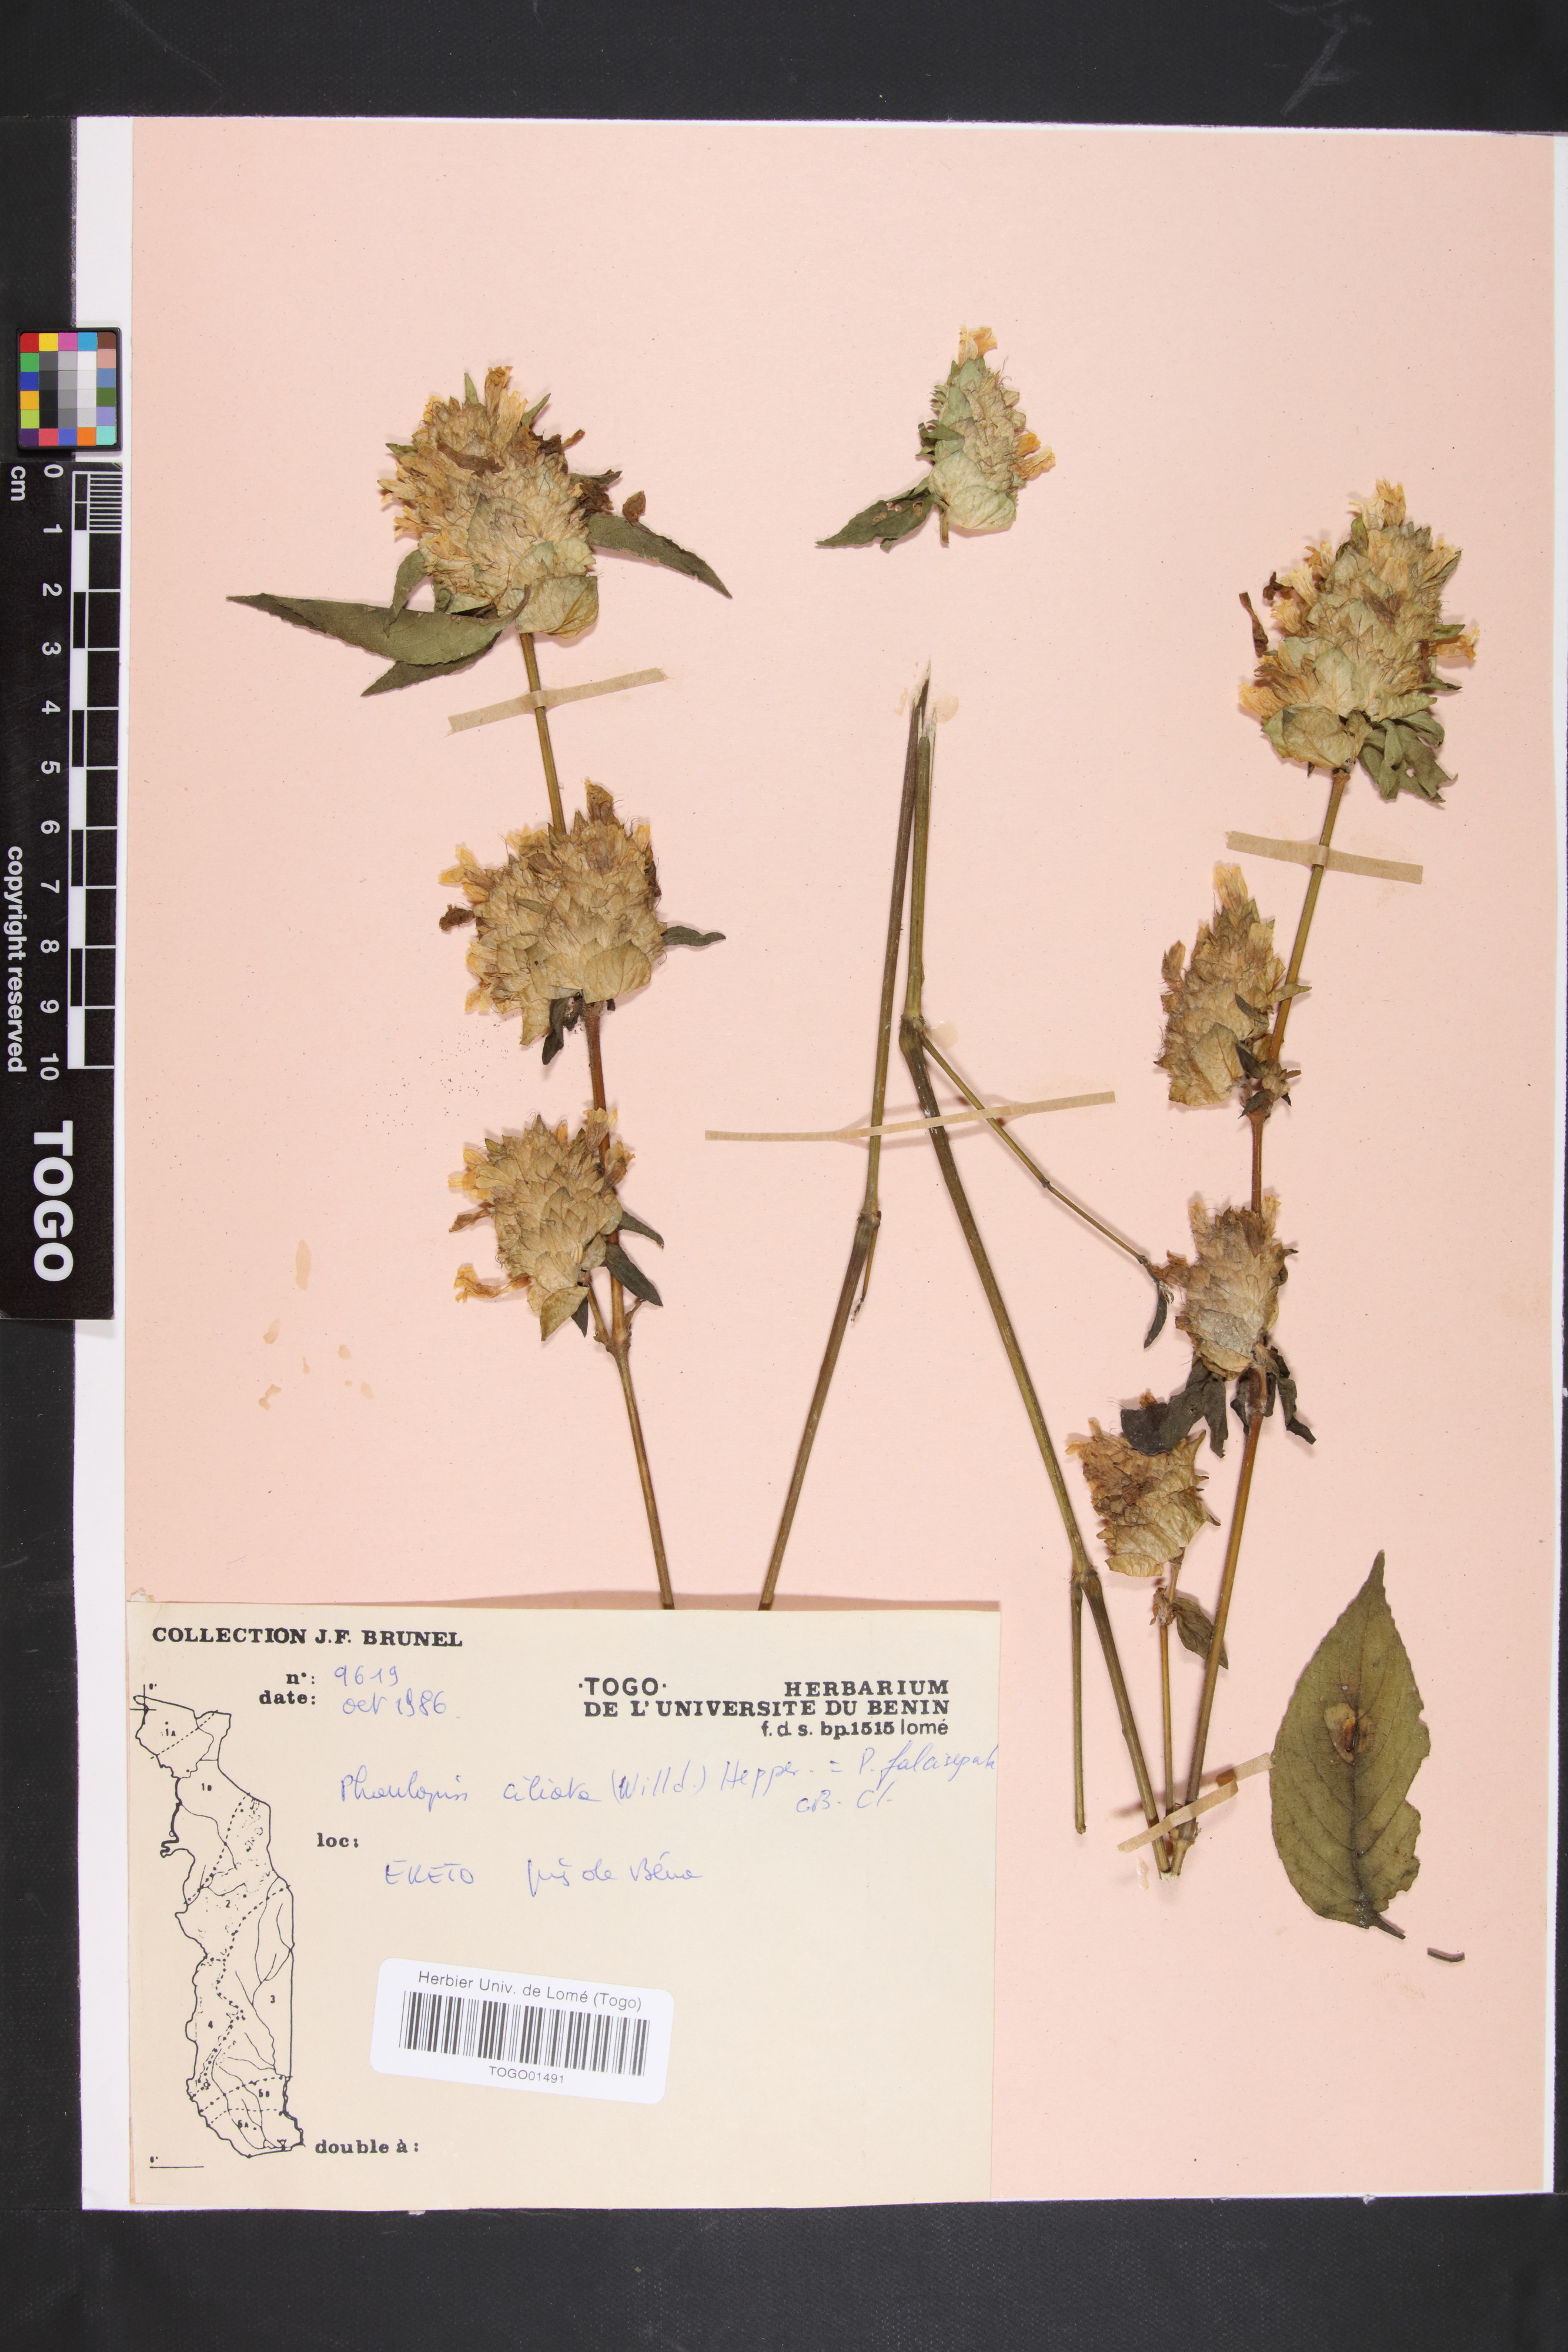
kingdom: Plantae
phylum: Tracheophyta
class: Magnoliopsida
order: Lamiales
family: Acanthaceae
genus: Phaulopsis
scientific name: Phaulopsis ciliata
